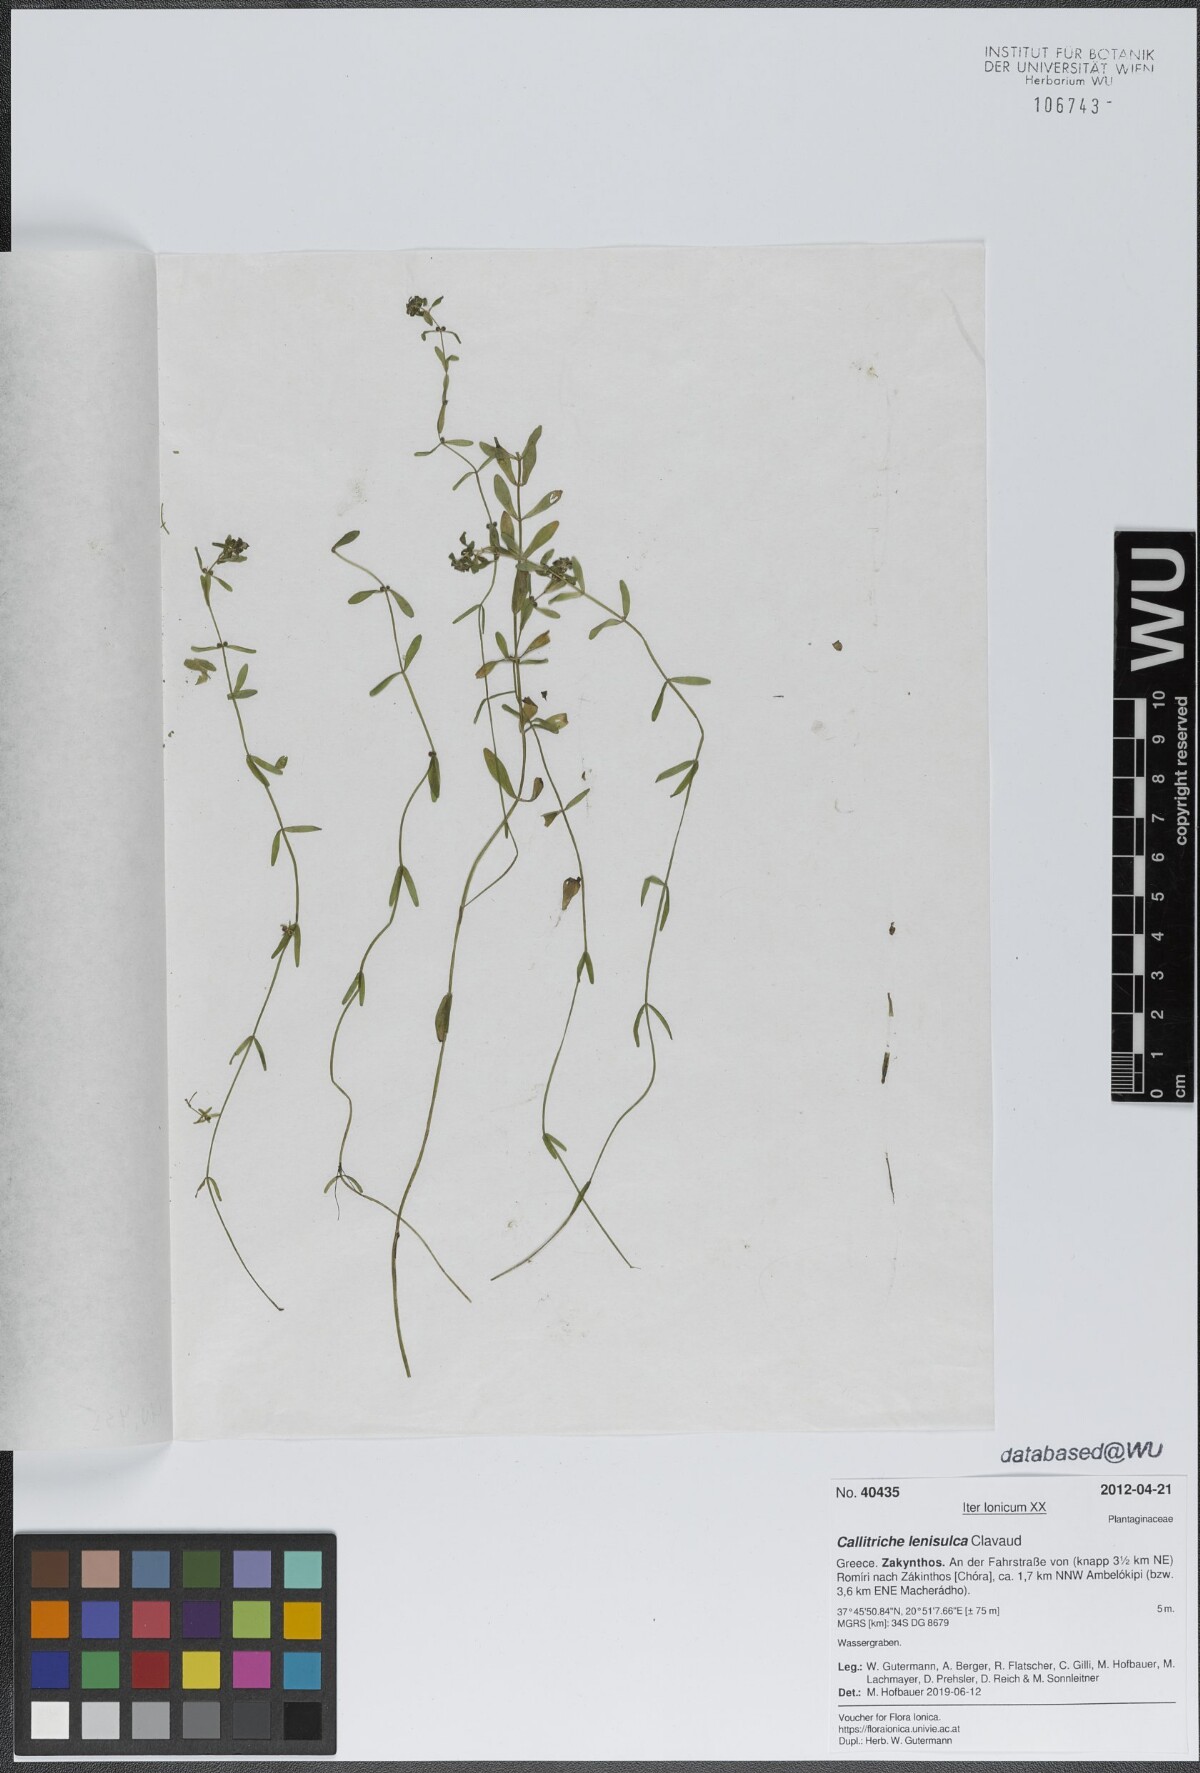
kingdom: Plantae
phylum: Tracheophyta
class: Magnoliopsida
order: Lamiales
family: Plantaginaceae
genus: Callitriche
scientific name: Callitriche lenisulca
